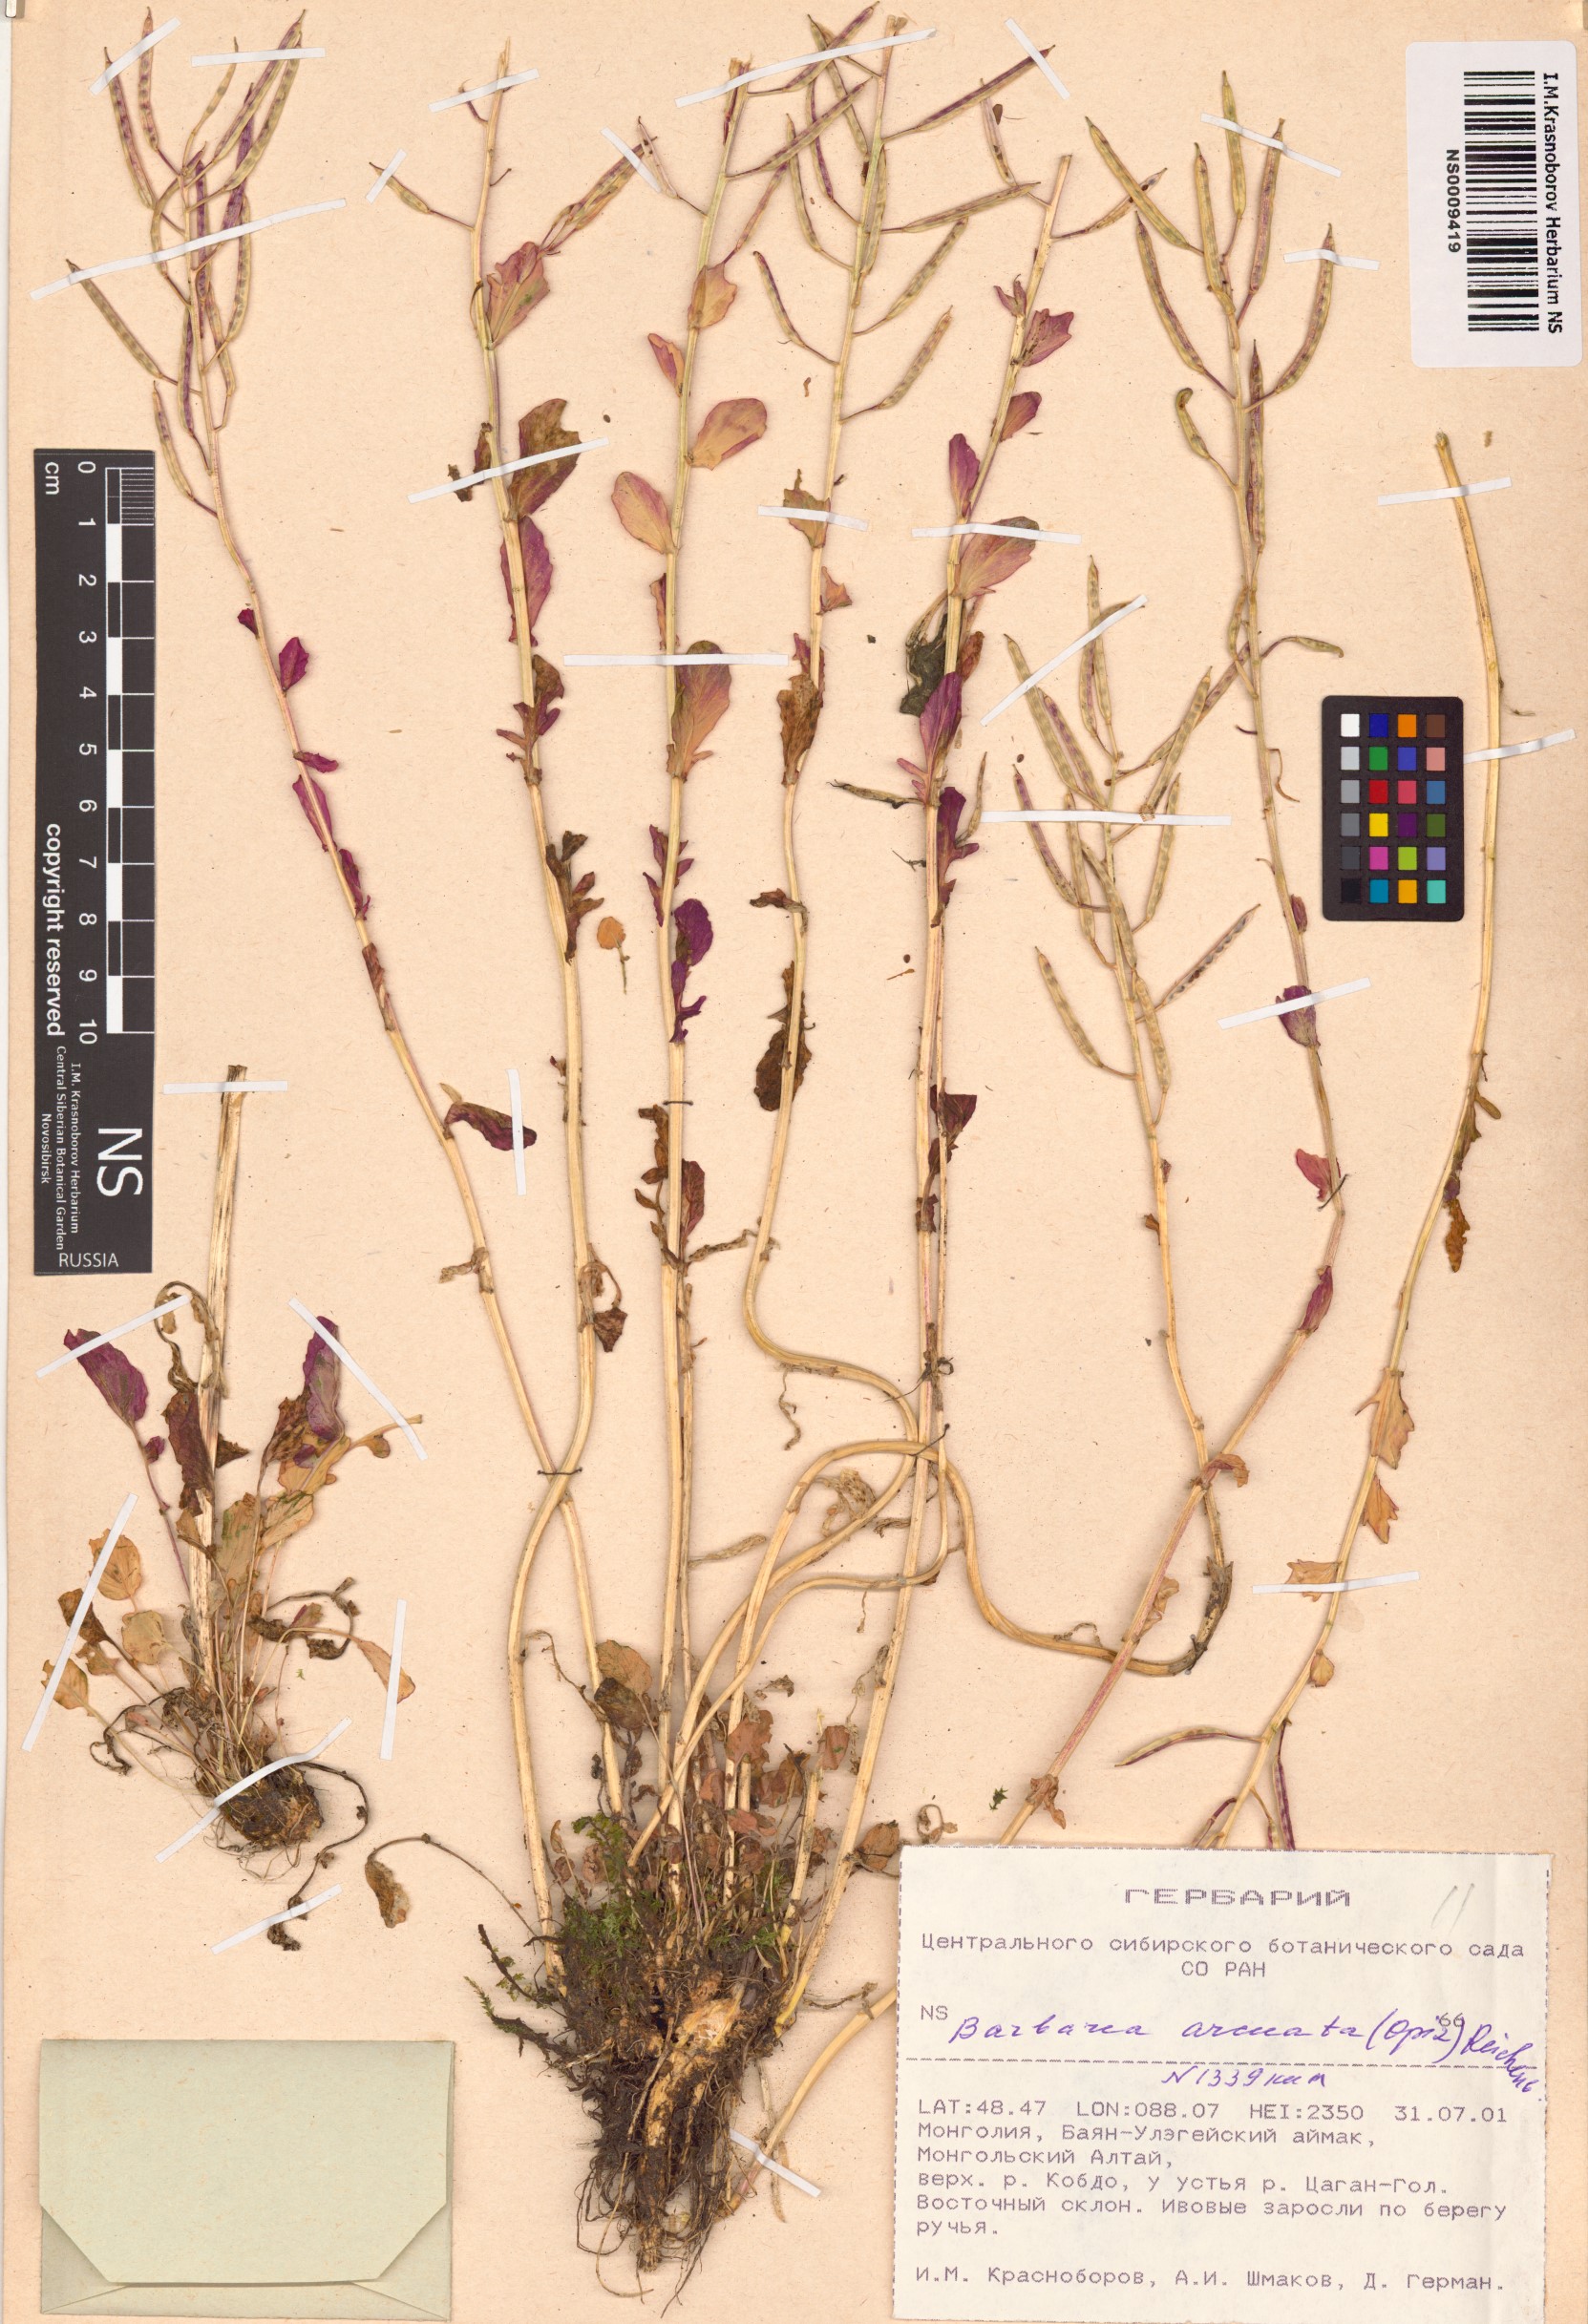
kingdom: Plantae
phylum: Tracheophyta
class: Magnoliopsida
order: Brassicales
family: Brassicaceae
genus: Barbarea
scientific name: Barbarea vulgaris
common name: Cressy-greens
